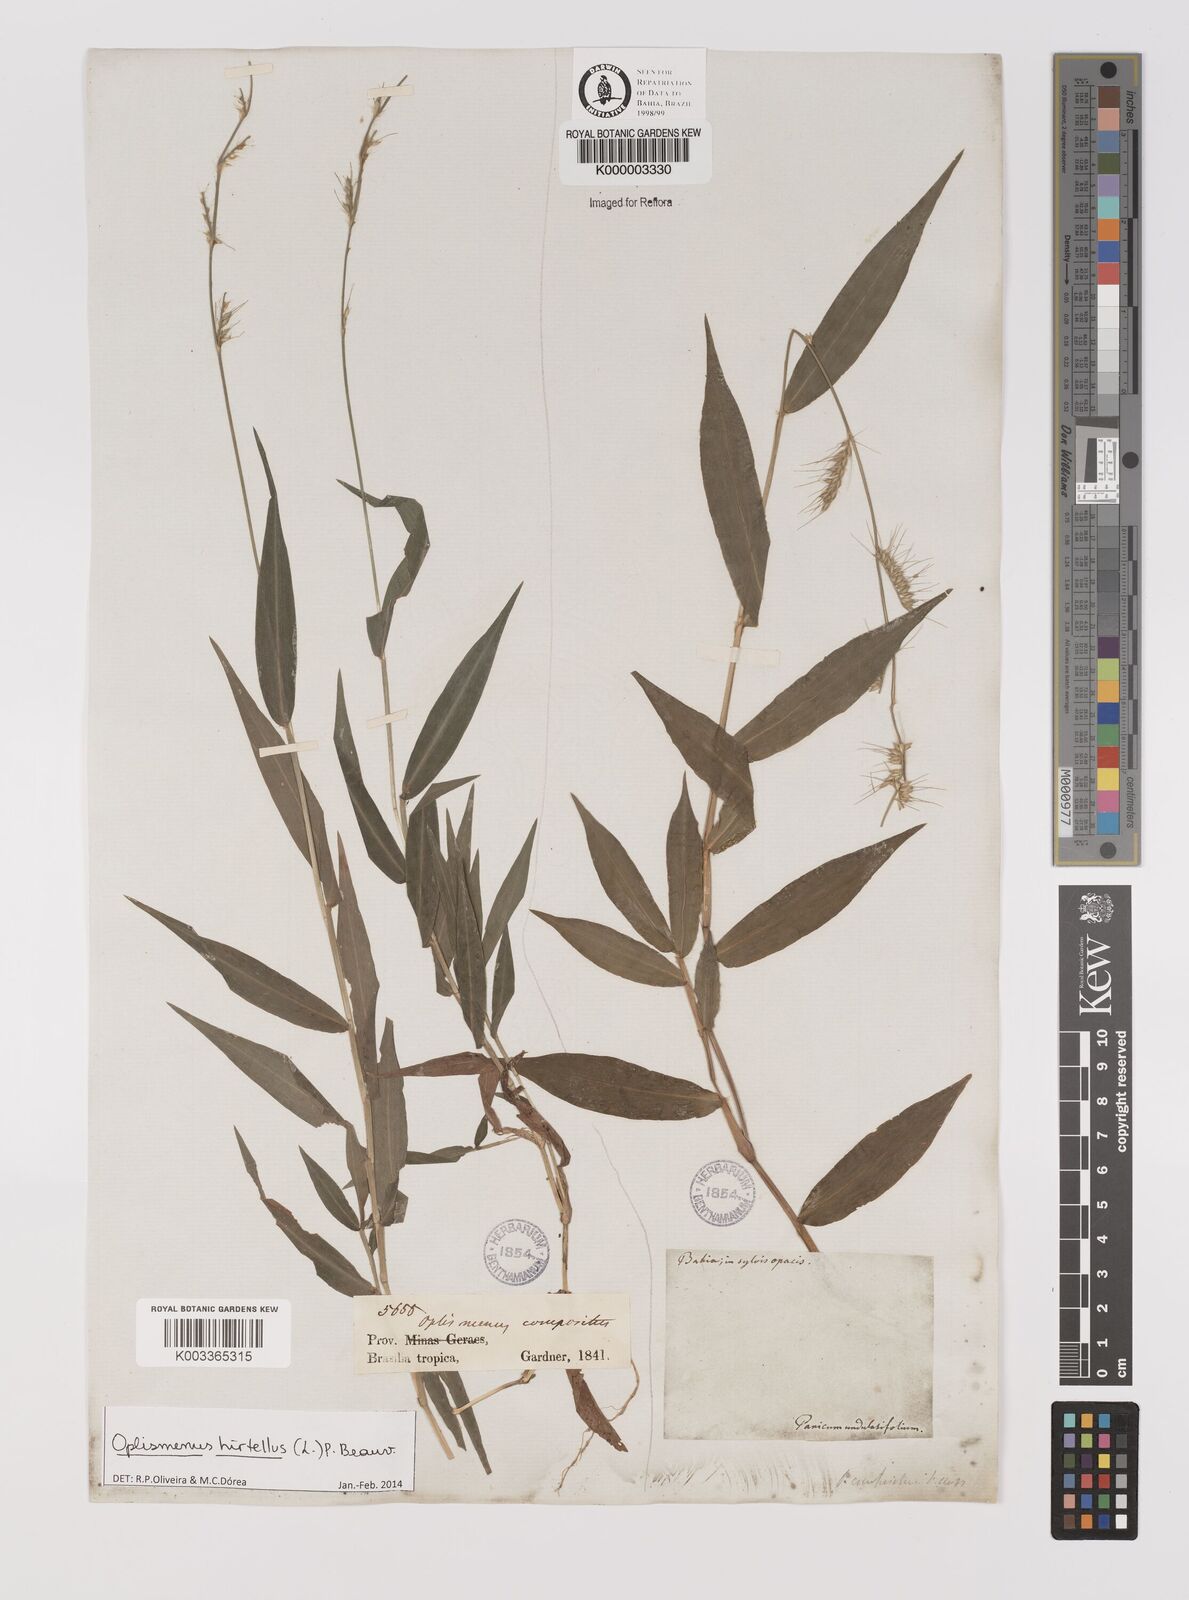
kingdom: Plantae
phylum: Tracheophyta
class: Liliopsida
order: Poales
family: Poaceae
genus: Oplismenus
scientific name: Oplismenus hirtellus
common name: Basketgrass
